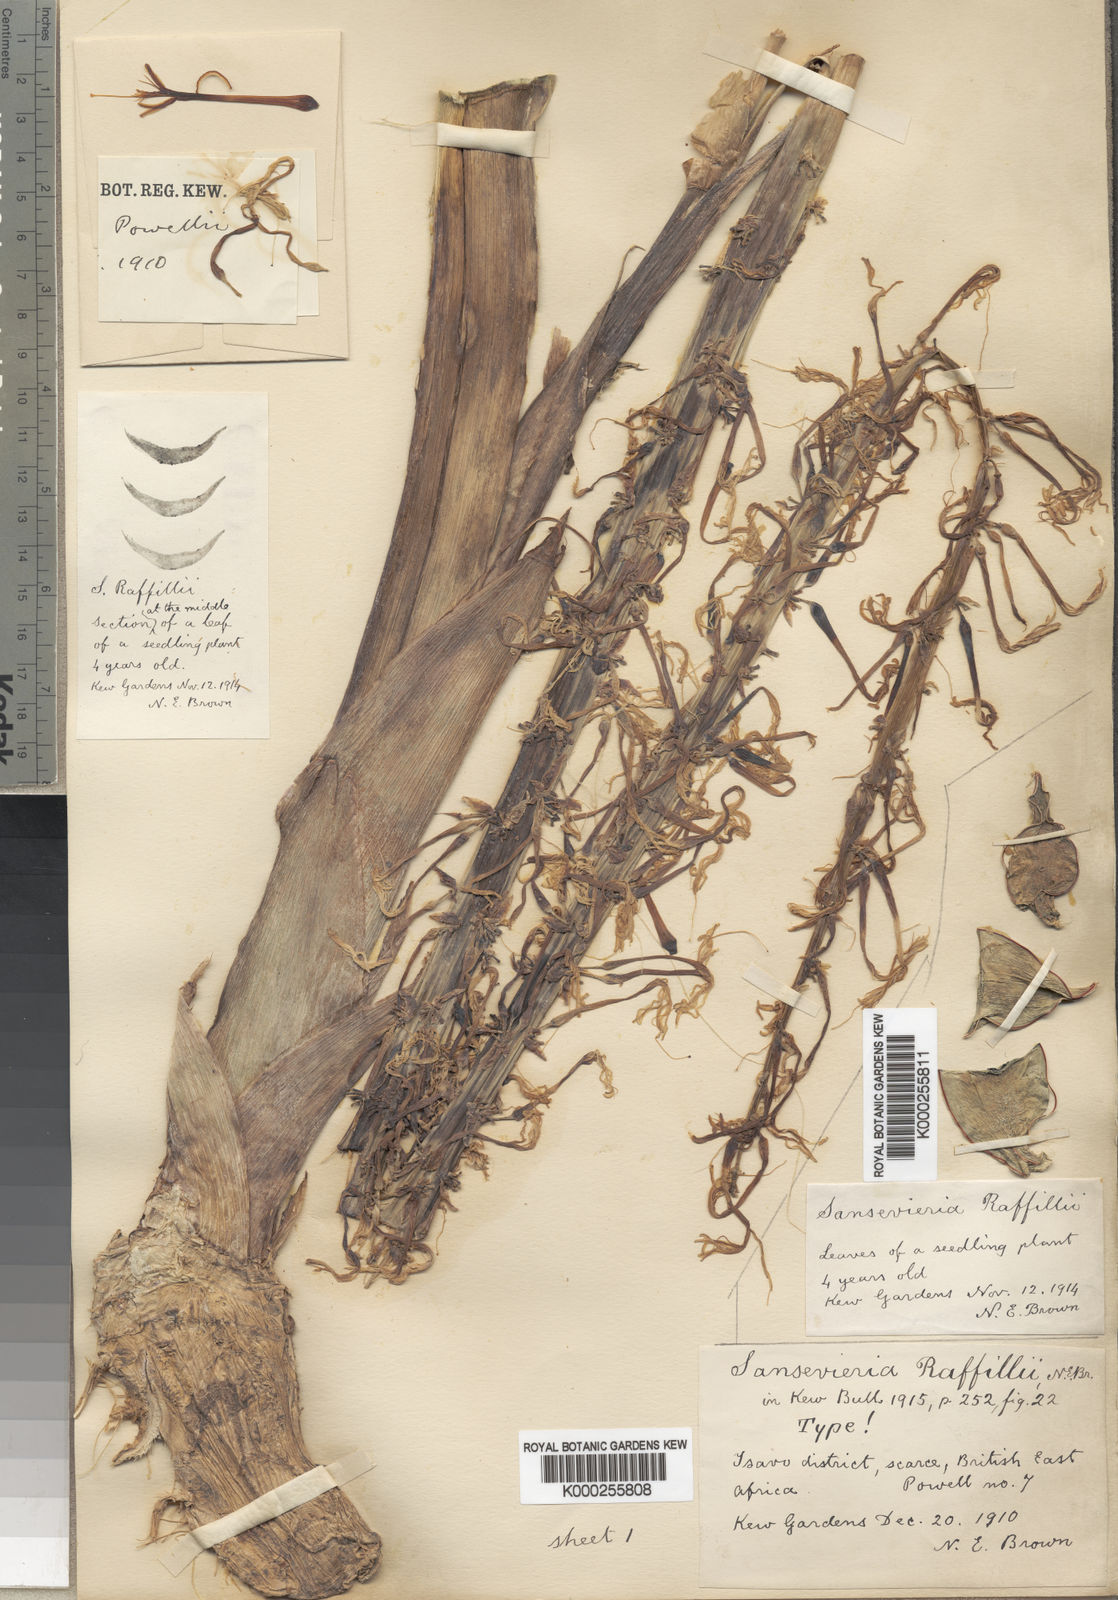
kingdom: Plantae
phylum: Tracheophyta
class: Liliopsida
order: Asparagales
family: Asparagaceae
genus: Dracaena
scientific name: Dracaena raffillii
